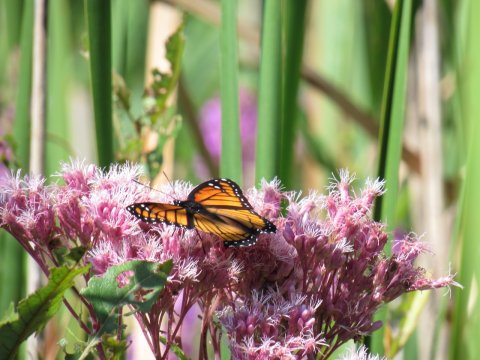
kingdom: Animalia
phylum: Arthropoda
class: Insecta
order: Lepidoptera
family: Nymphalidae
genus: Limenitis
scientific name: Limenitis archippus
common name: Viceroy
